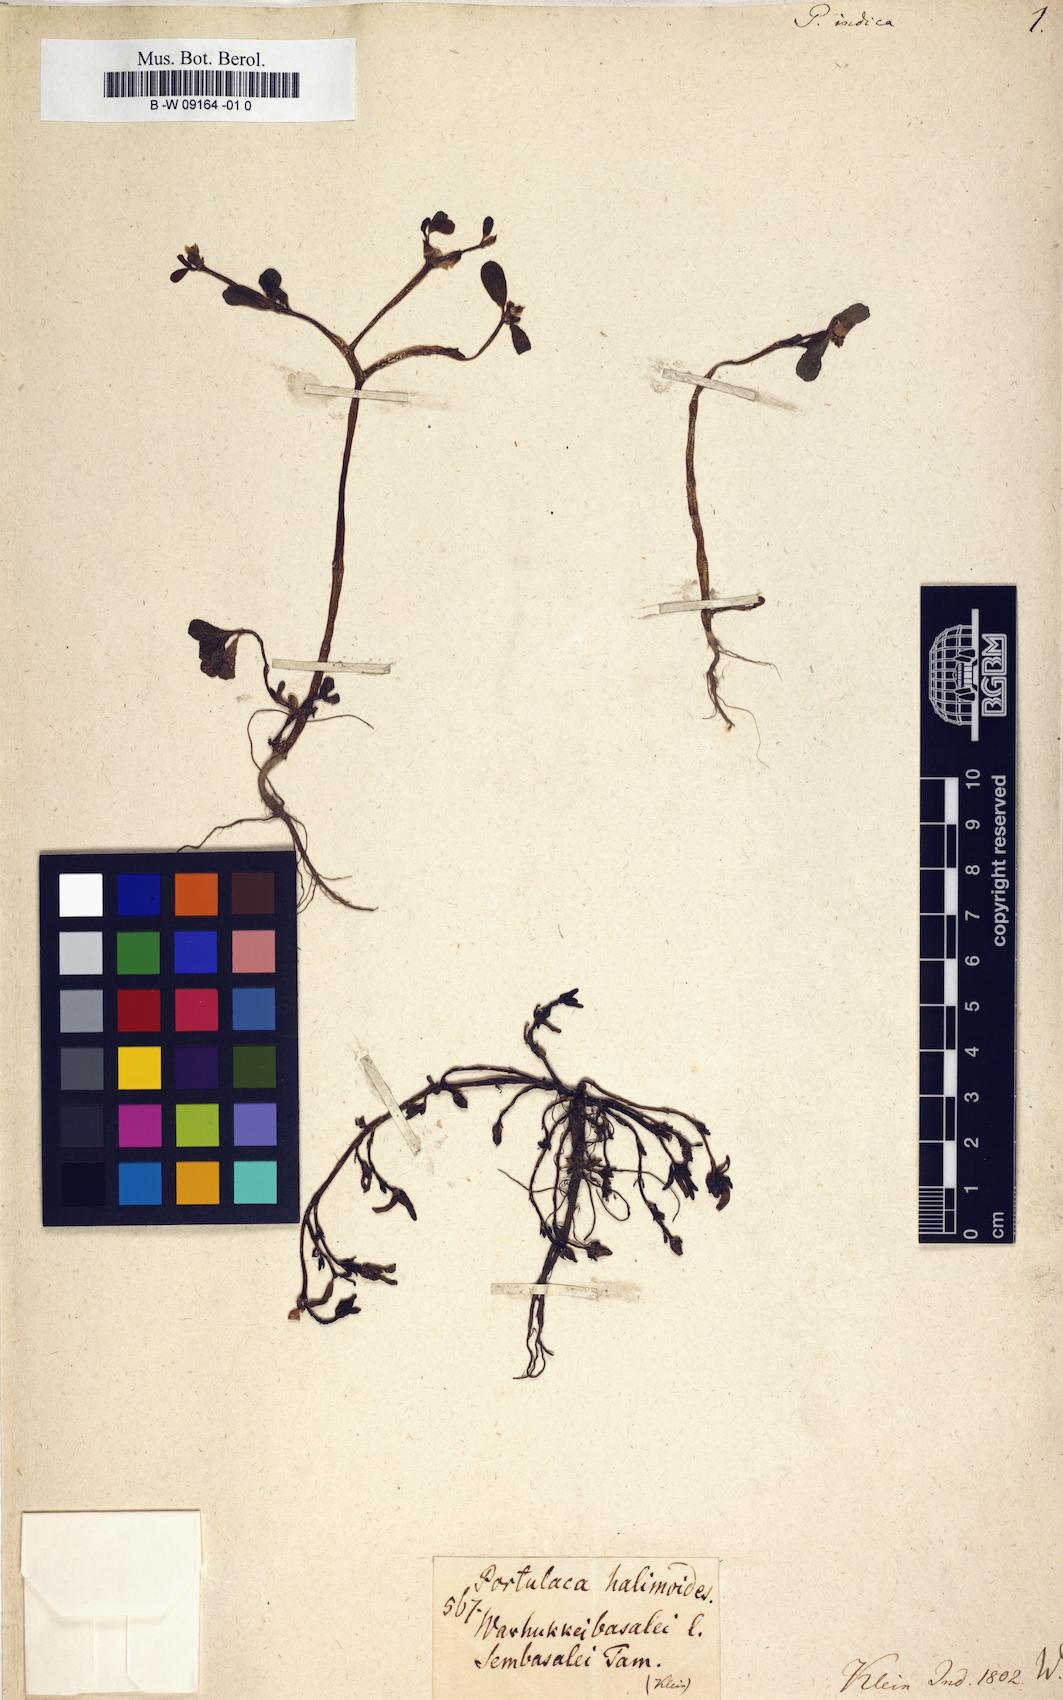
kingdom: Plantae
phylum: Tracheophyta
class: Magnoliopsida
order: Caryophyllales
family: Portulacaceae
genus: Portulaca
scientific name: Portulaca
